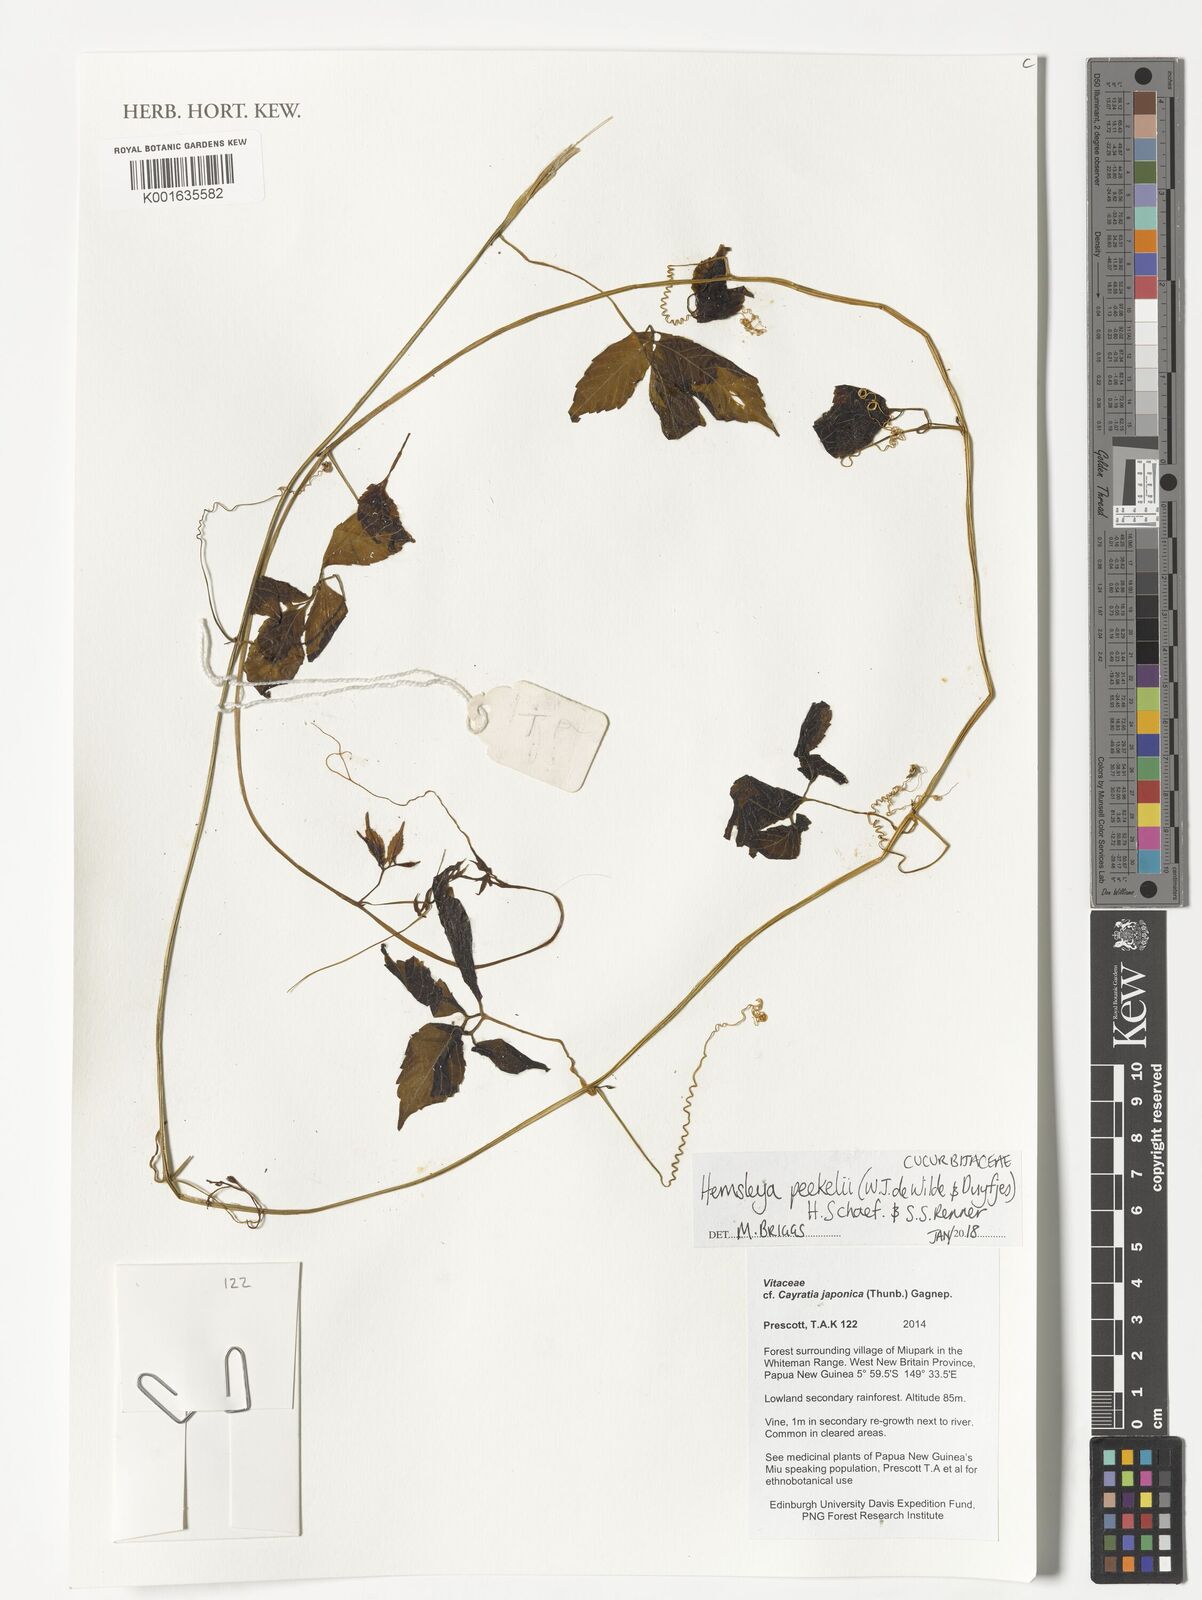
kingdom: Plantae
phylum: Tracheophyta
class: Magnoliopsida
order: Cucurbitales
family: Cucurbitaceae
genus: Hemsleya
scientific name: Hemsleya peekelii
